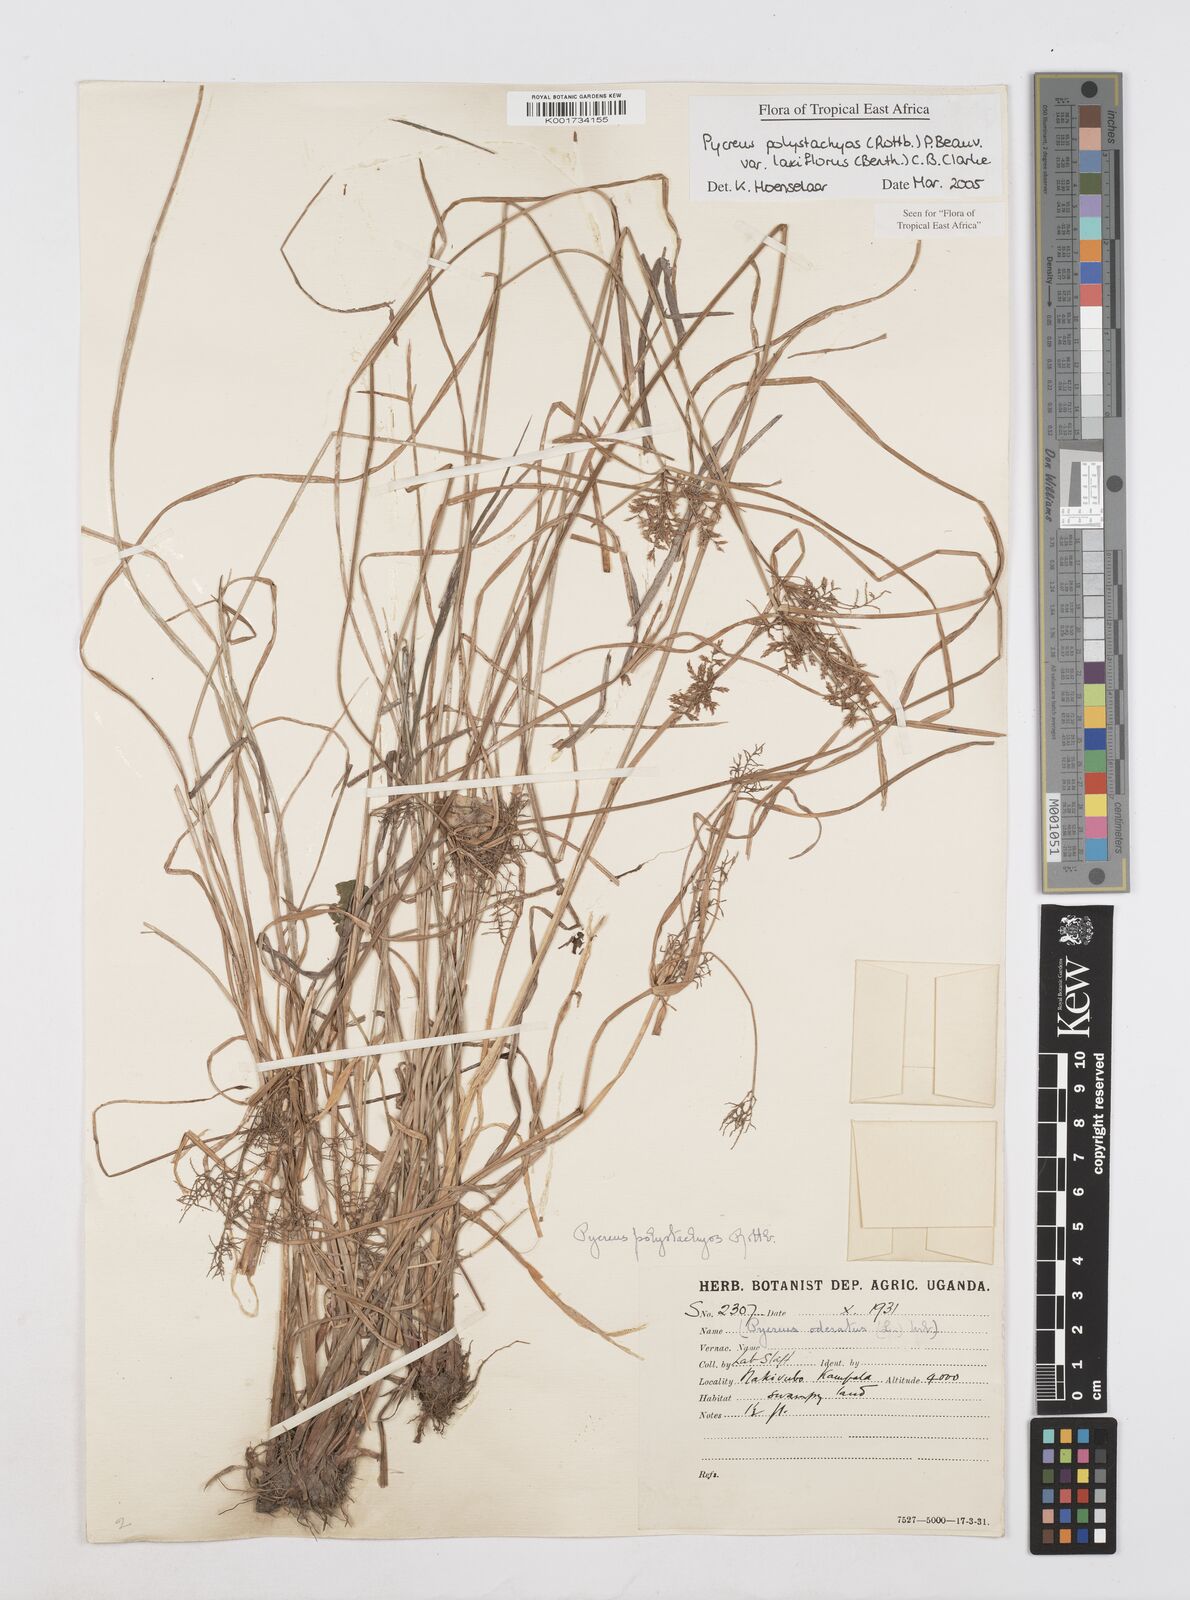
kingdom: Plantae
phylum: Tracheophyta
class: Liliopsida
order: Poales
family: Cyperaceae
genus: Cyperus
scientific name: Cyperus polystachyos
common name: Bunchy flat sedge
